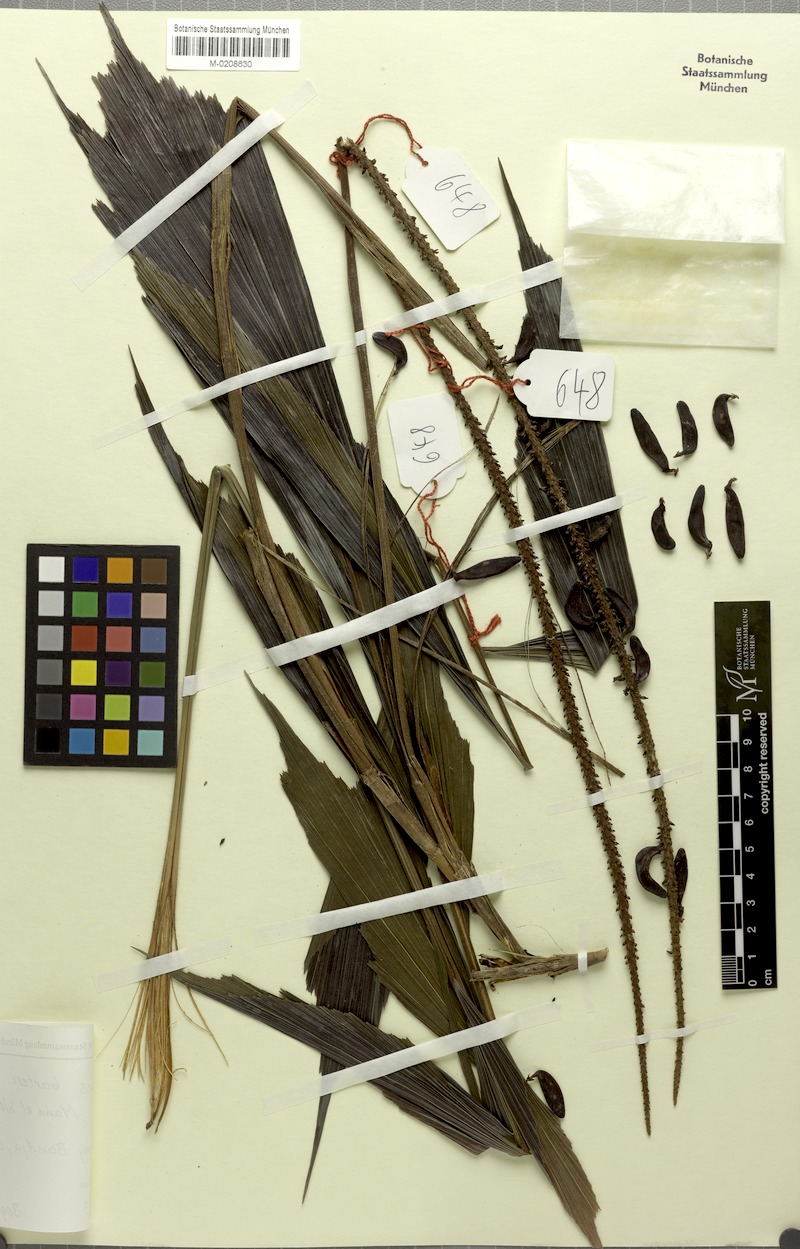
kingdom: Plantae
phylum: Tracheophyta
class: Liliopsida
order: Arecales
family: Arecaceae
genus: Podococcus
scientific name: Podococcus barteri
